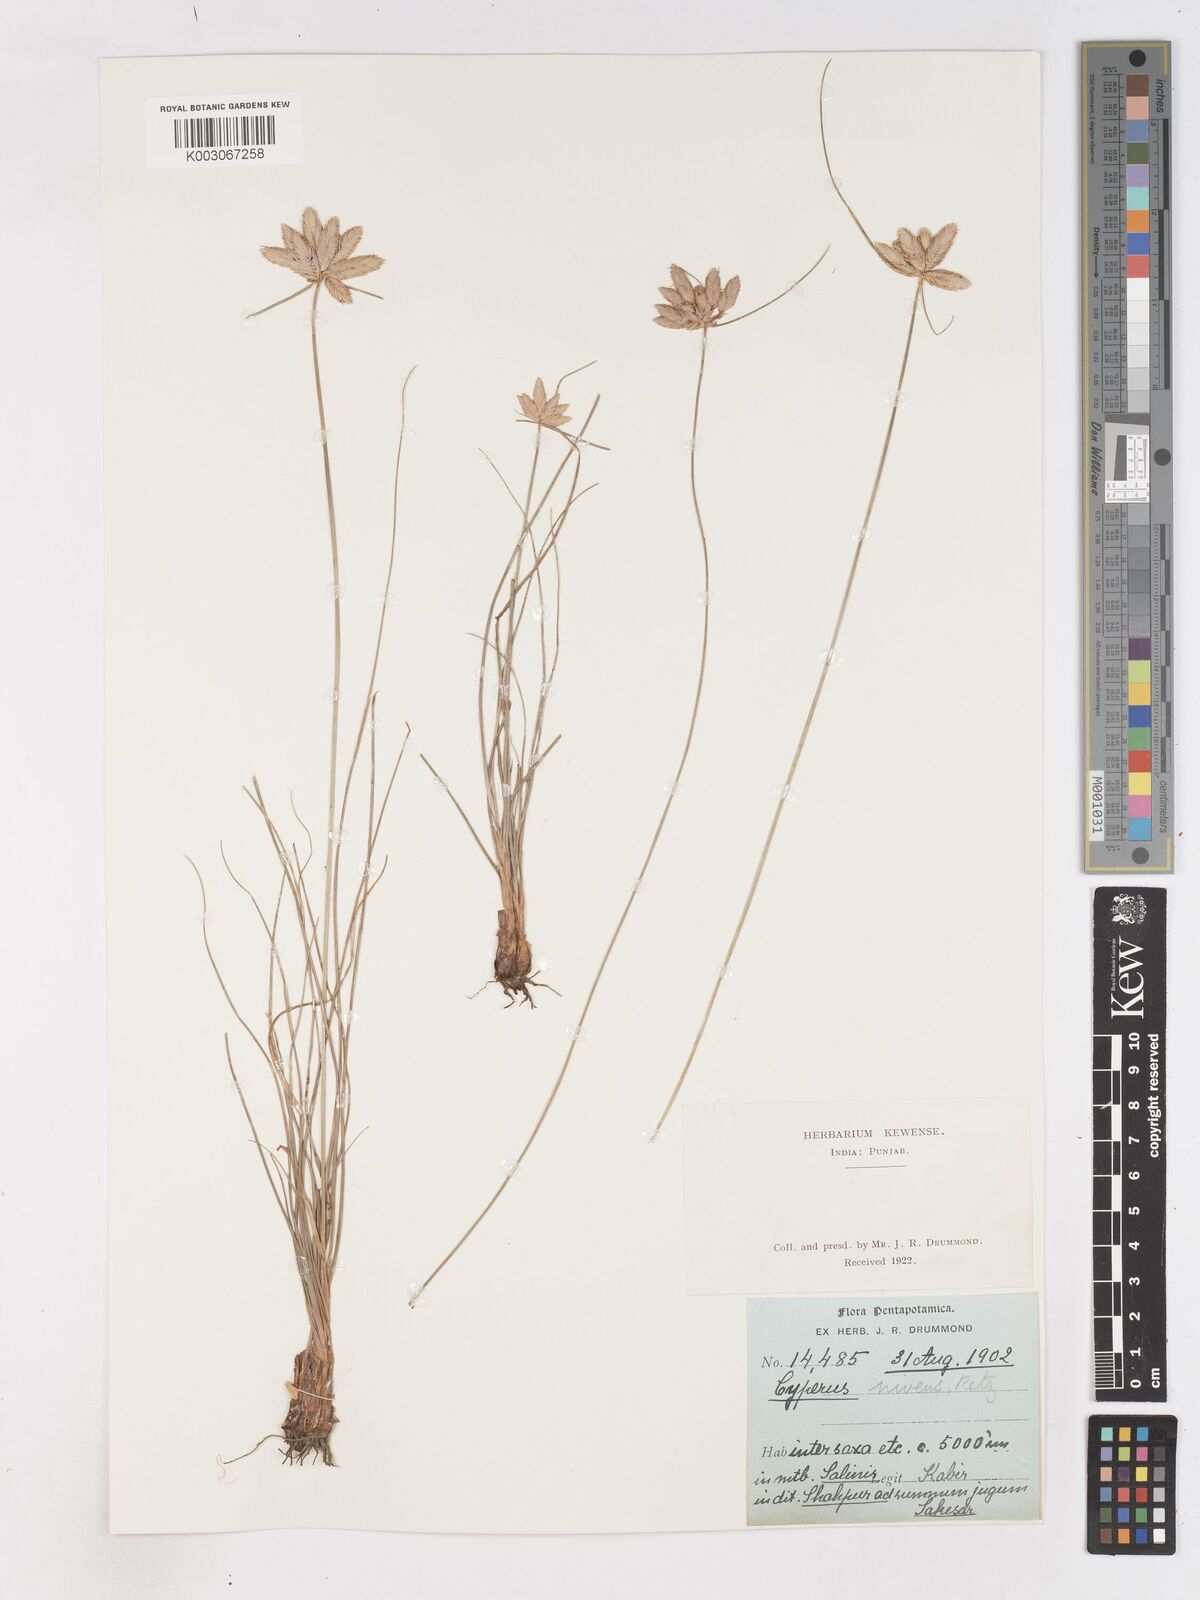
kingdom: Plantae
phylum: Tracheophyta
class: Liliopsida
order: Poales
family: Cyperaceae
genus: Cyperus
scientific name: Cyperus niveus
